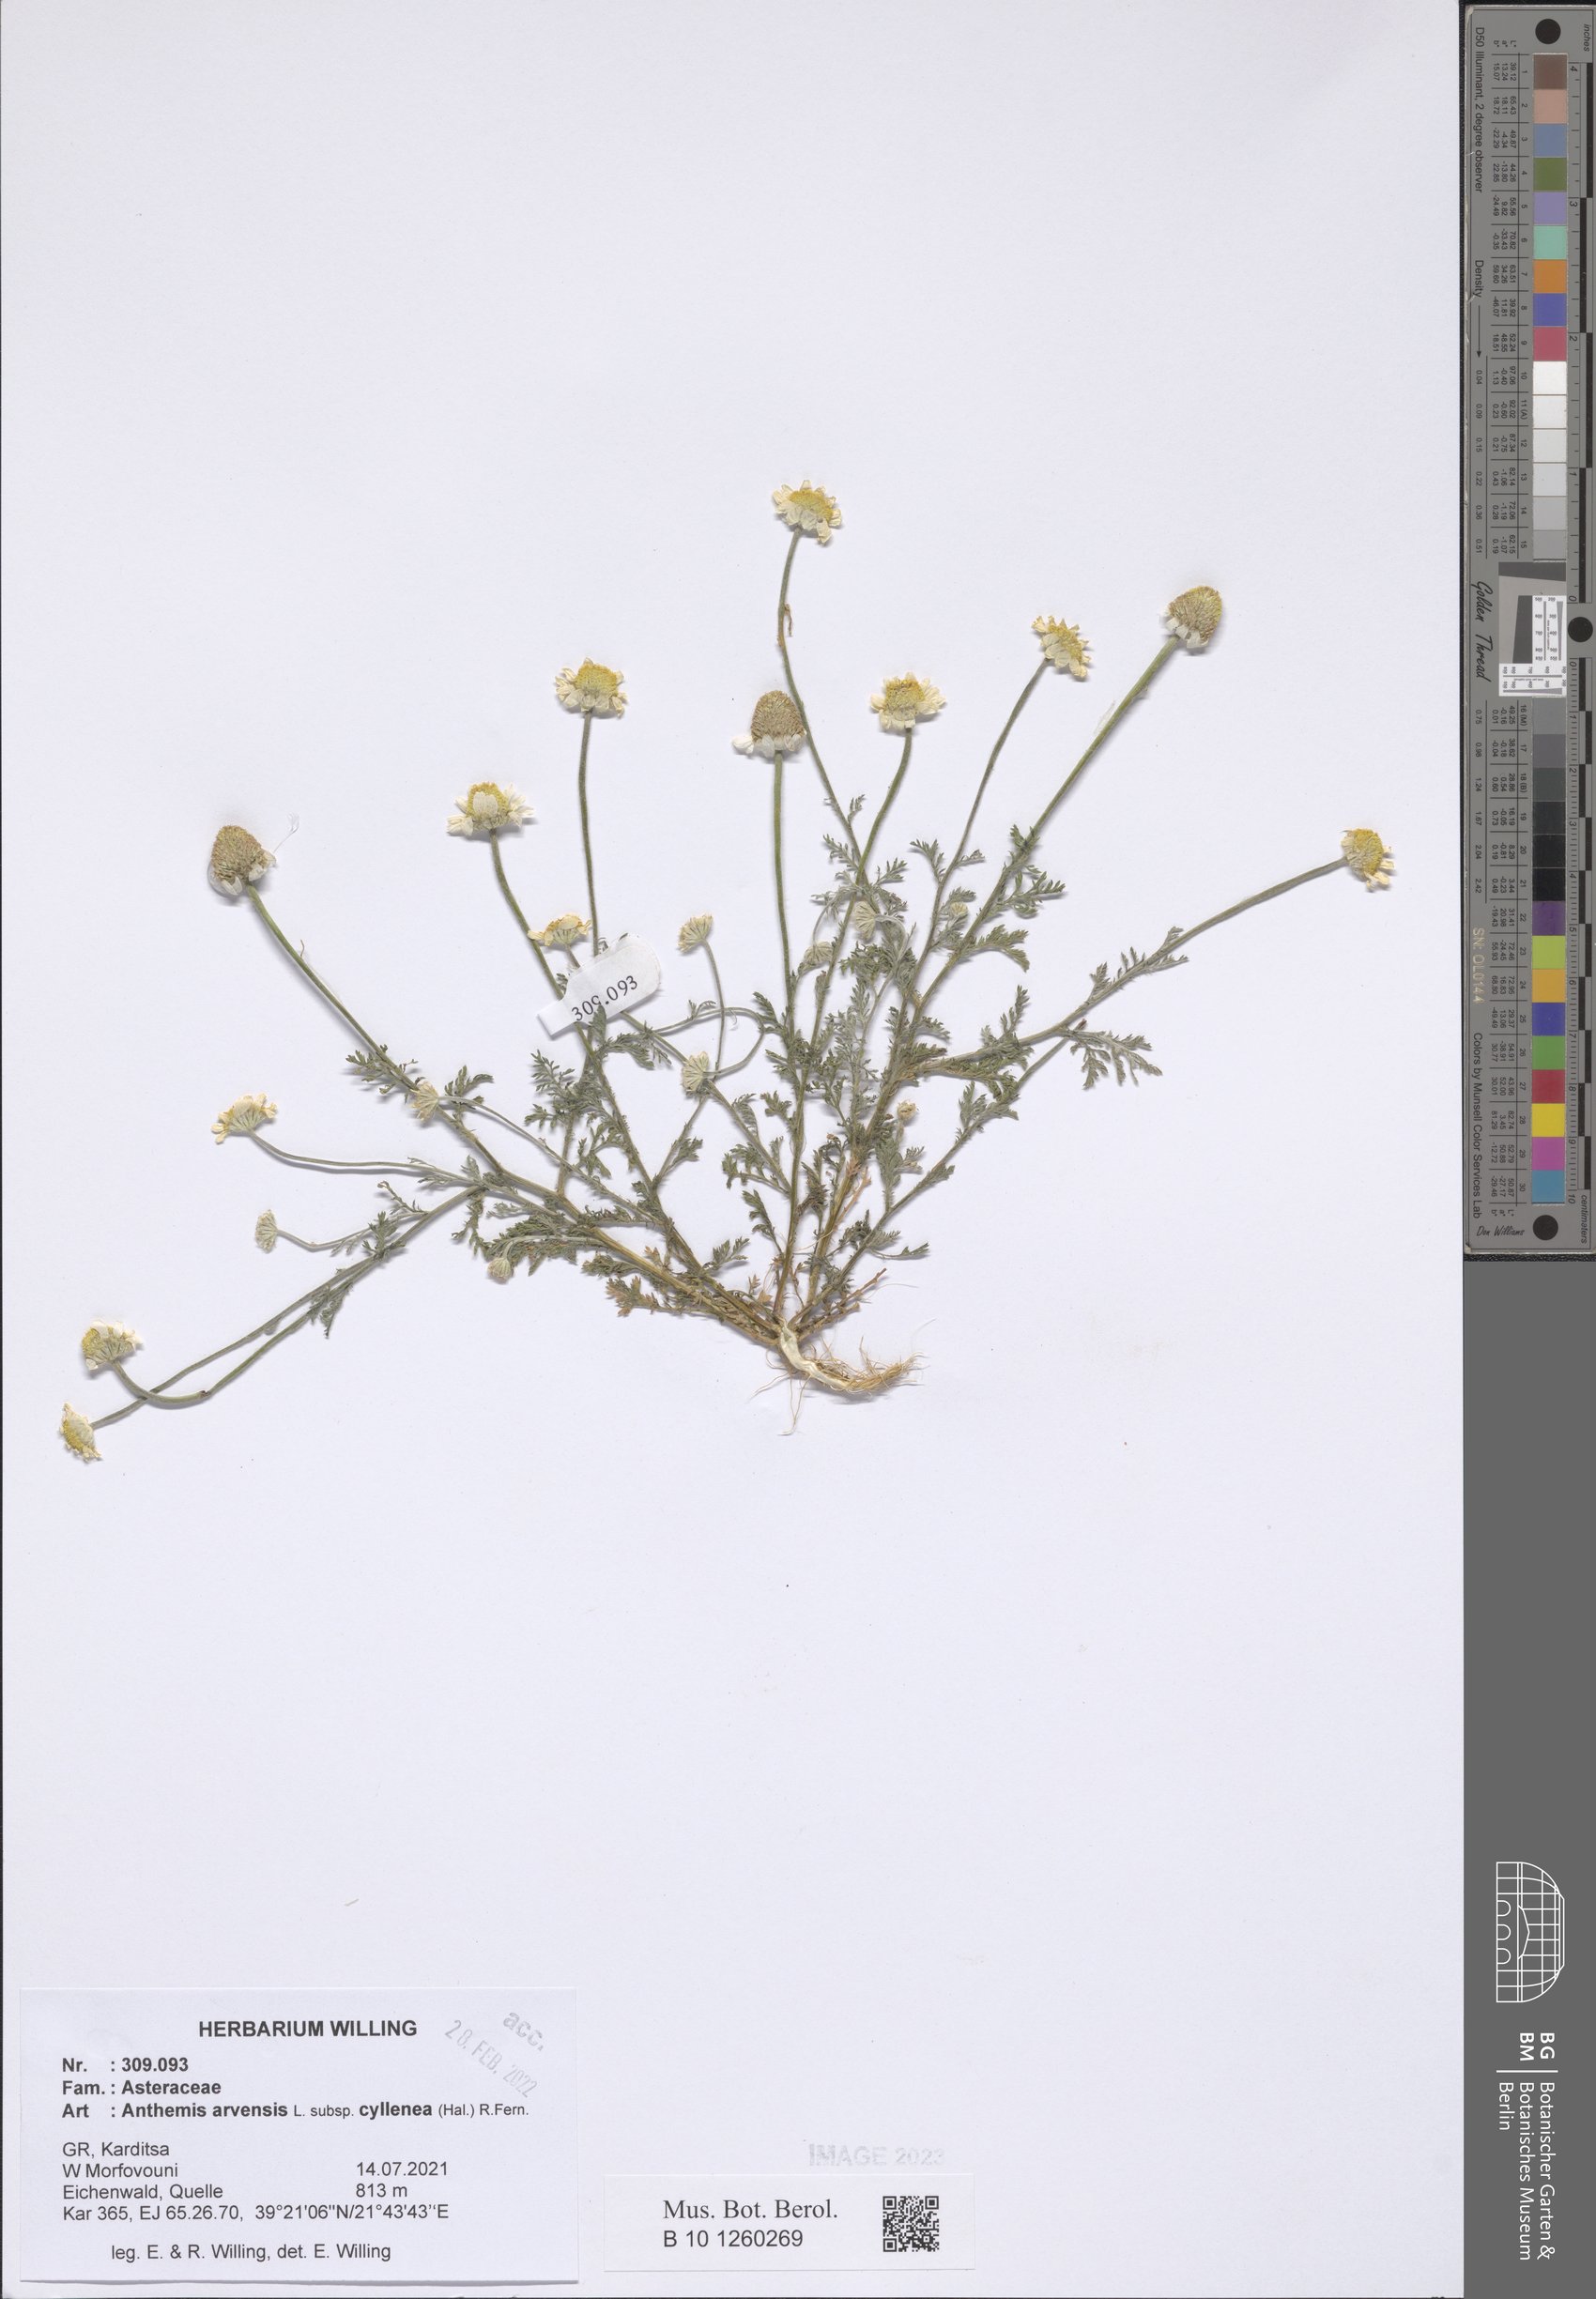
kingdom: Plantae
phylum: Tracheophyta
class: Magnoliopsida
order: Asterales
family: Asteraceae
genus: Anthemis
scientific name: Anthemis arvensis
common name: Corn chamomile
